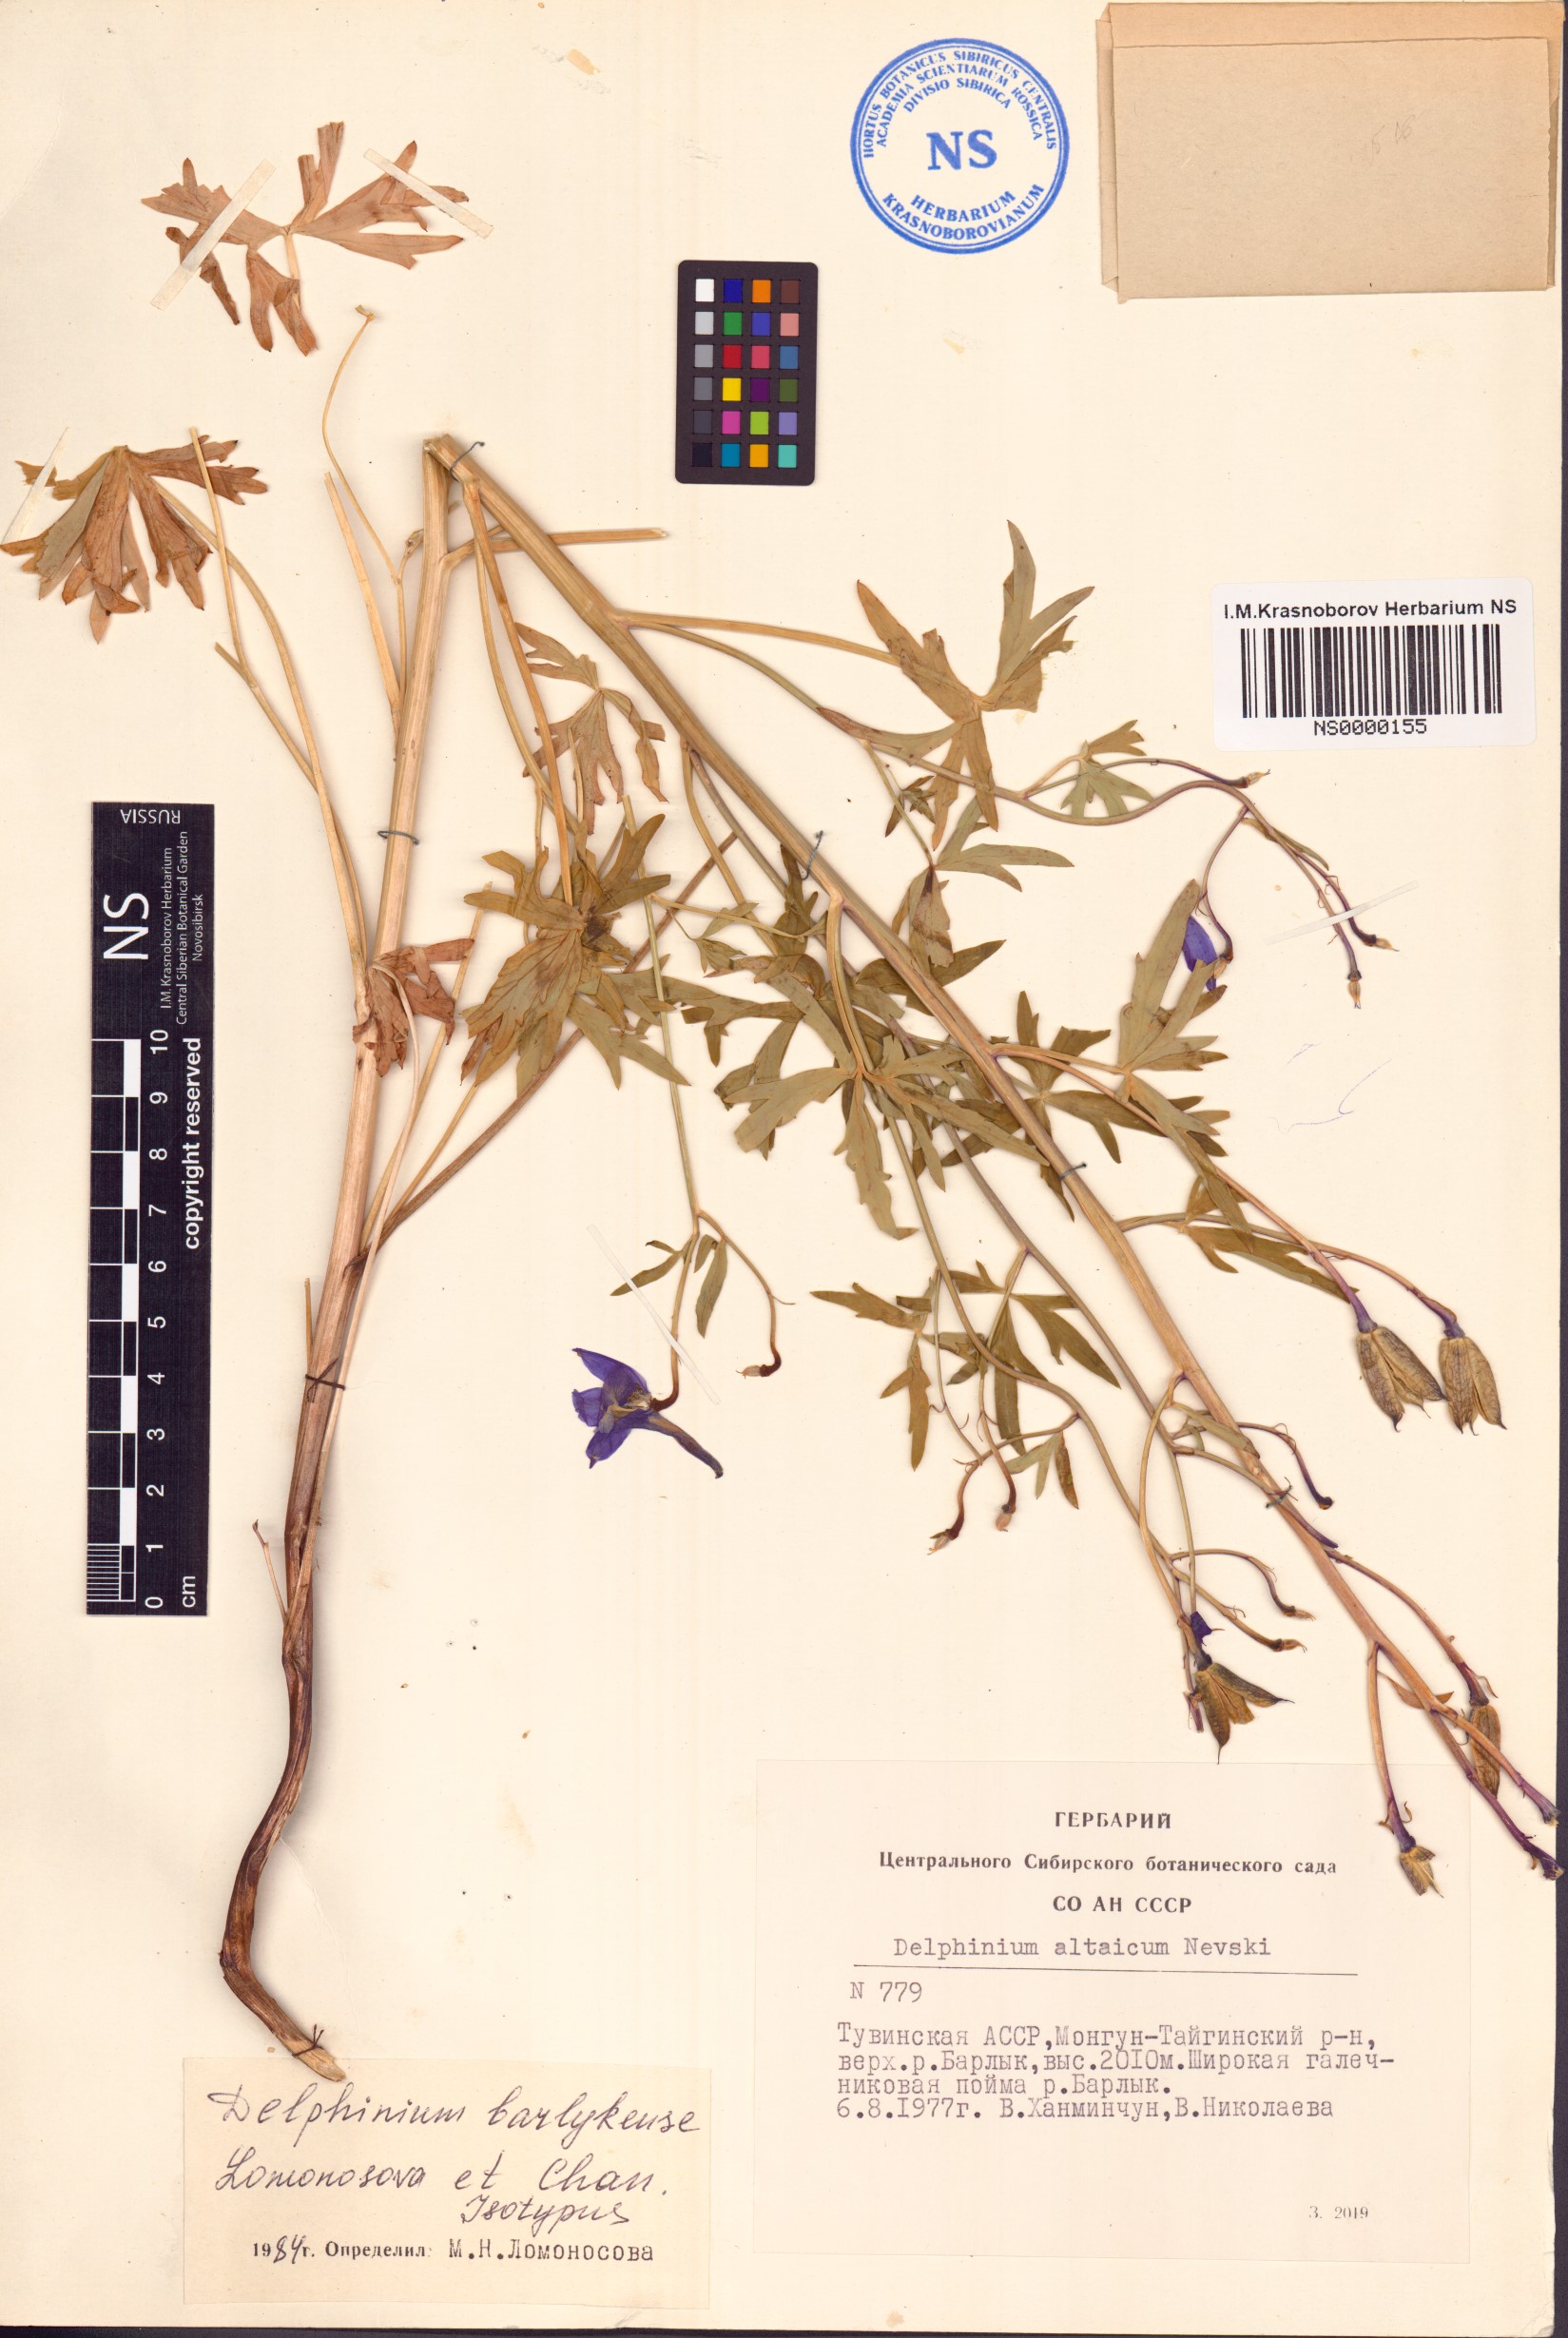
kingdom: Plantae
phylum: Tracheophyta
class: Magnoliopsida
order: Ranunculales
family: Ranunculaceae
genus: Delphinium
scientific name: Delphinium barlykense
